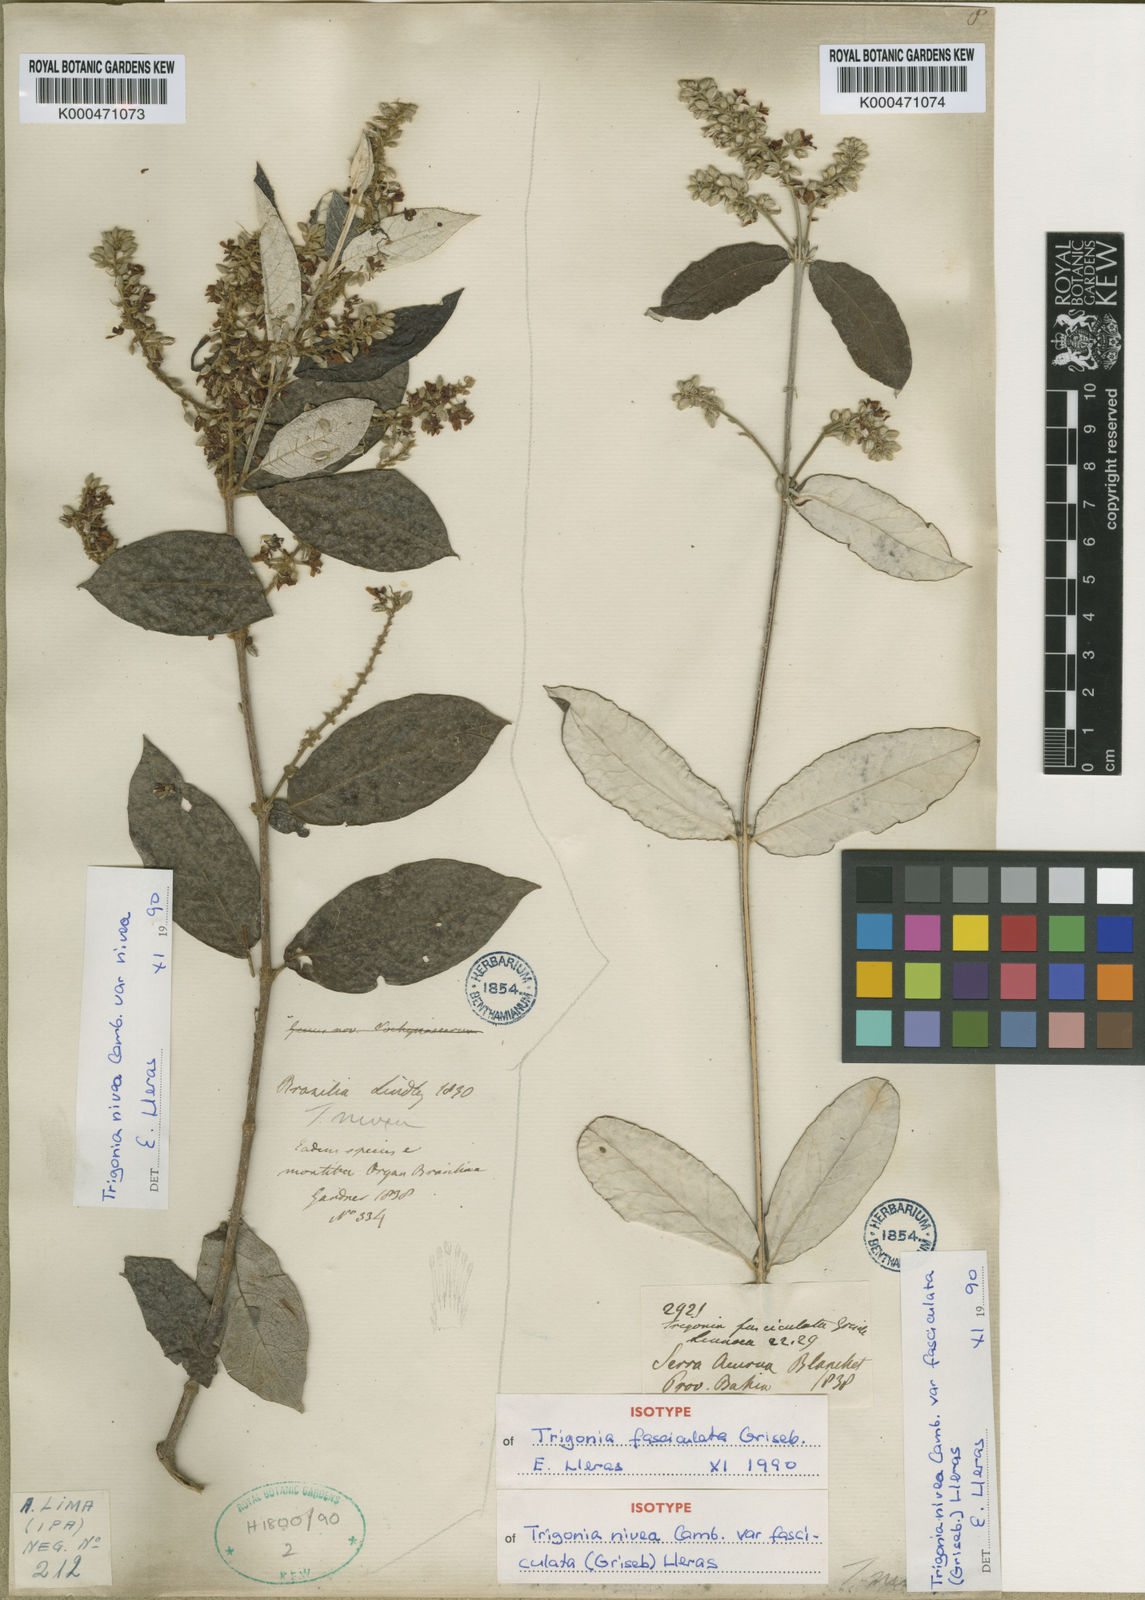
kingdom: Plantae
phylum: Tracheophyta
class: Magnoliopsida
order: Malpighiales
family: Trigoniaceae
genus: Trigonia
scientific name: Trigonia nivea
